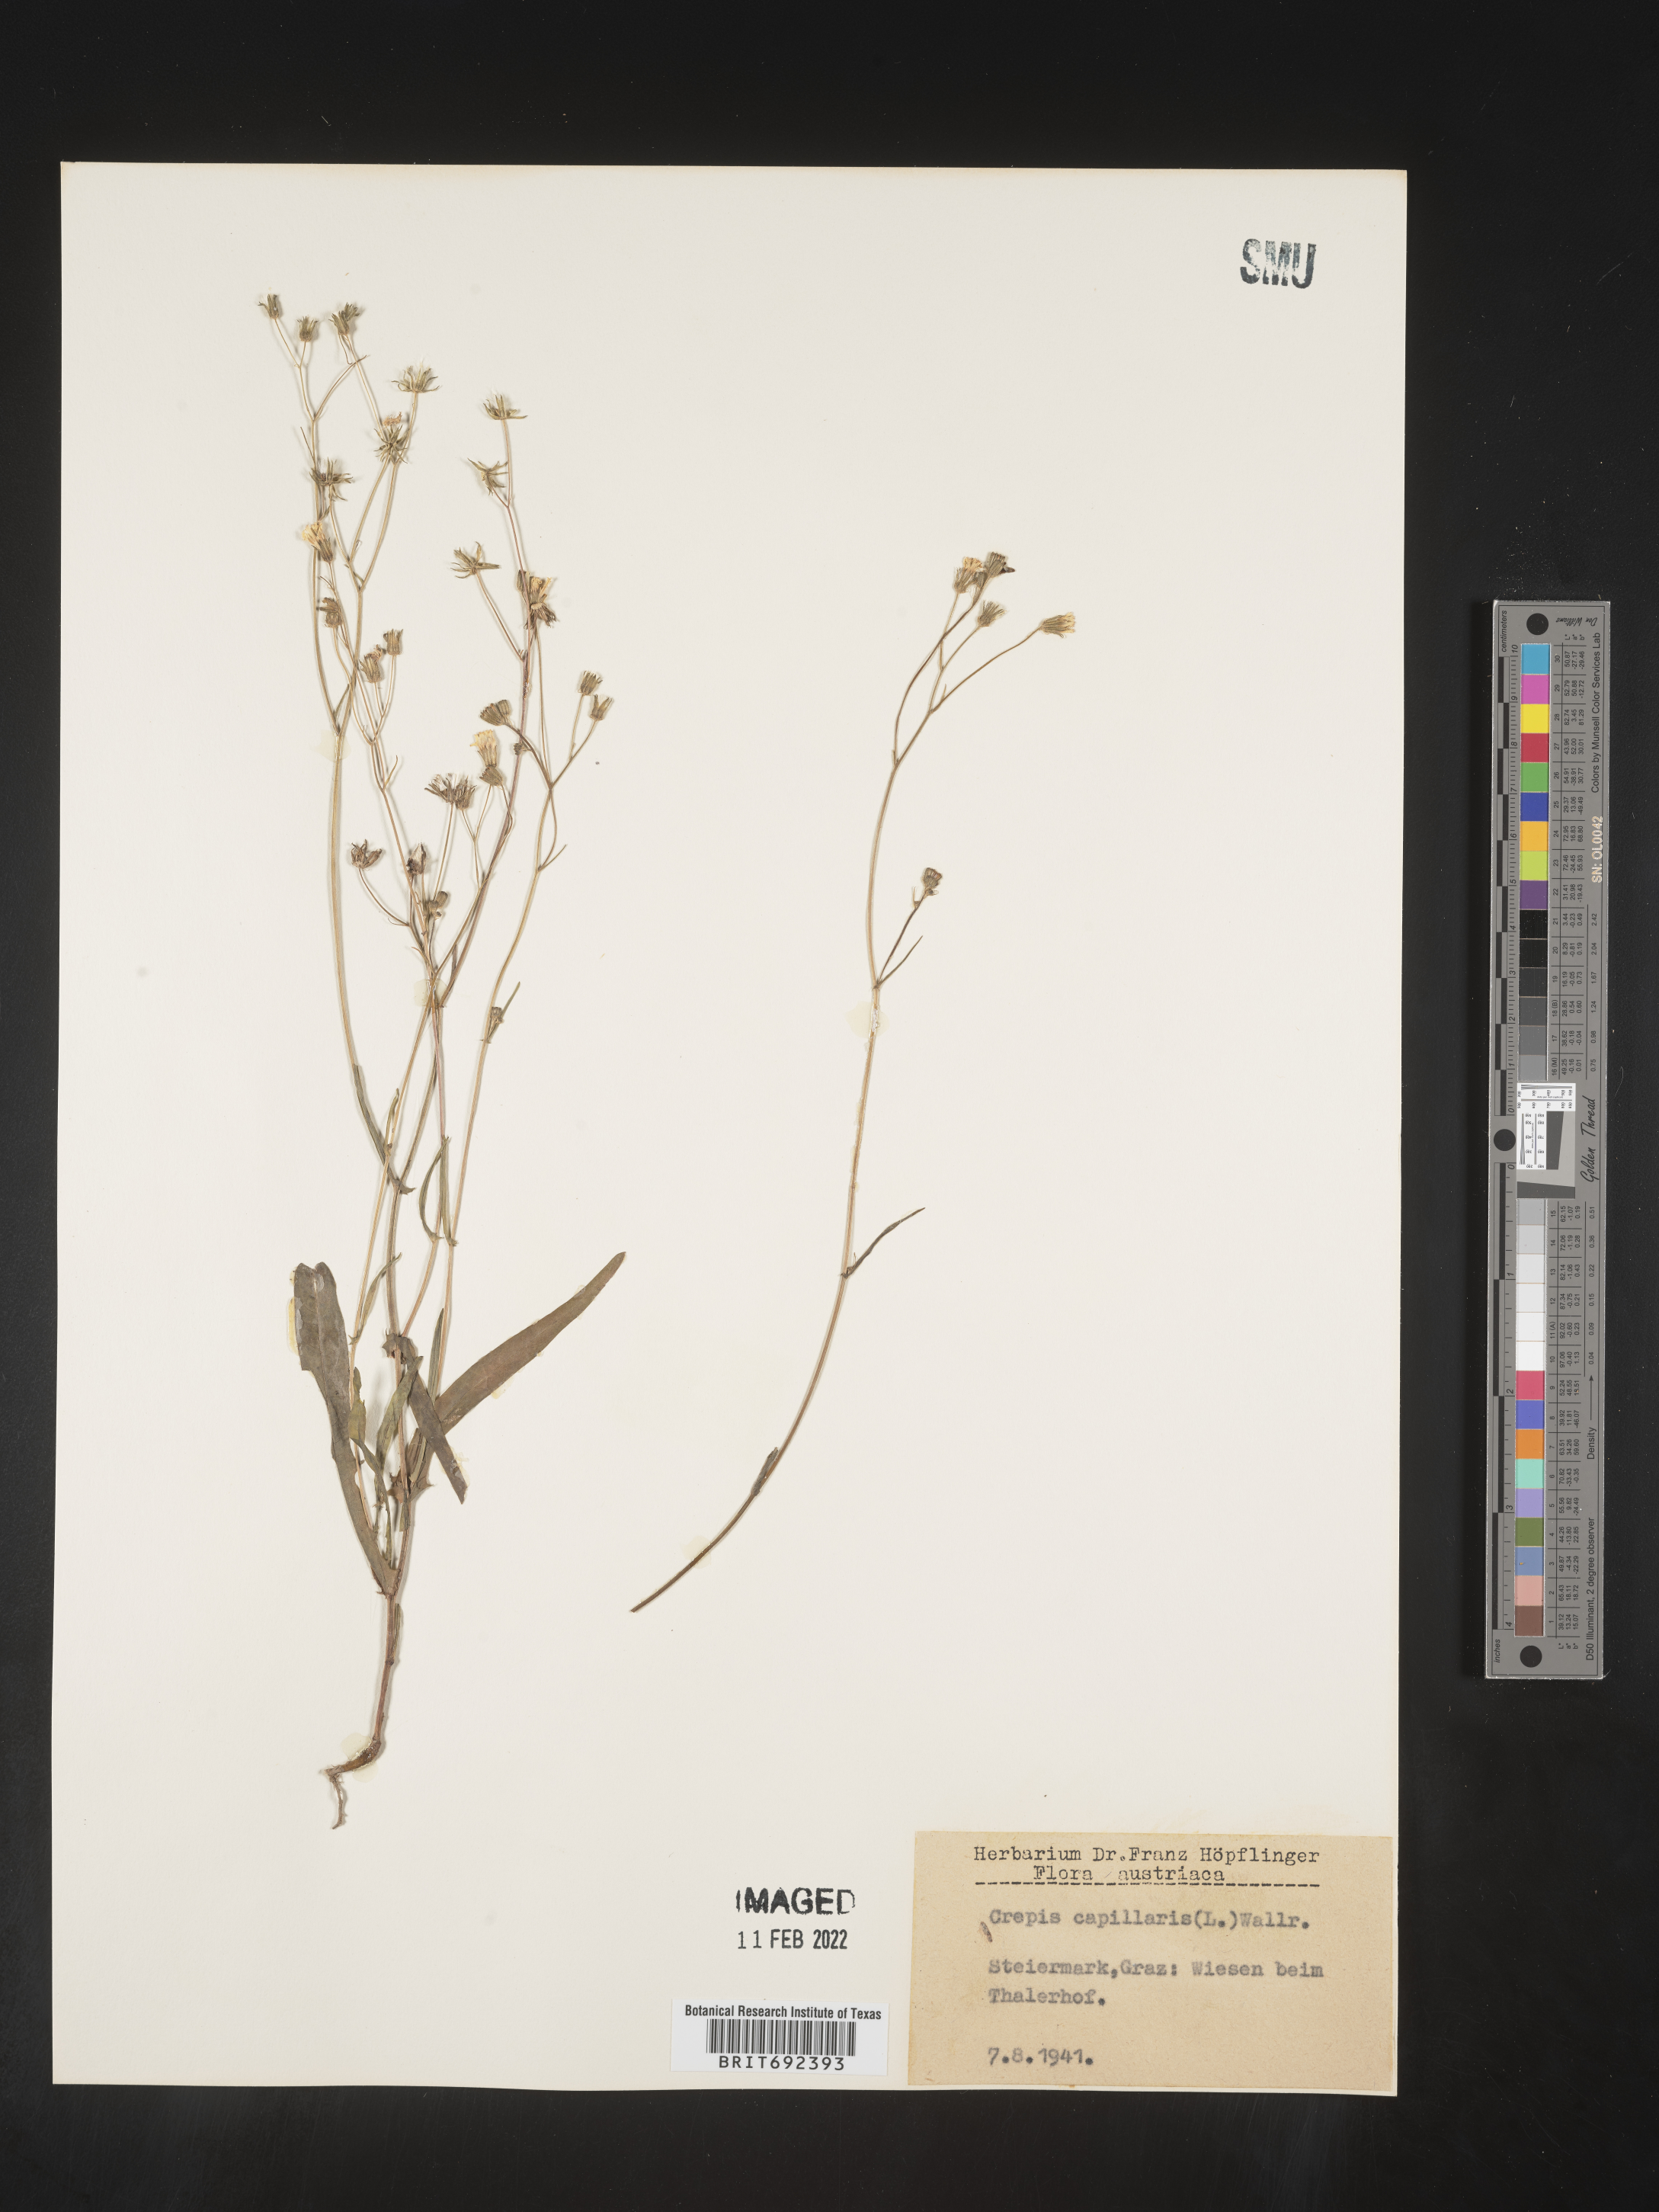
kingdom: Plantae
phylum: Tracheophyta
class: Magnoliopsida
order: Asterales
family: Asteraceae
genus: Crepis
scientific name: Crepis
